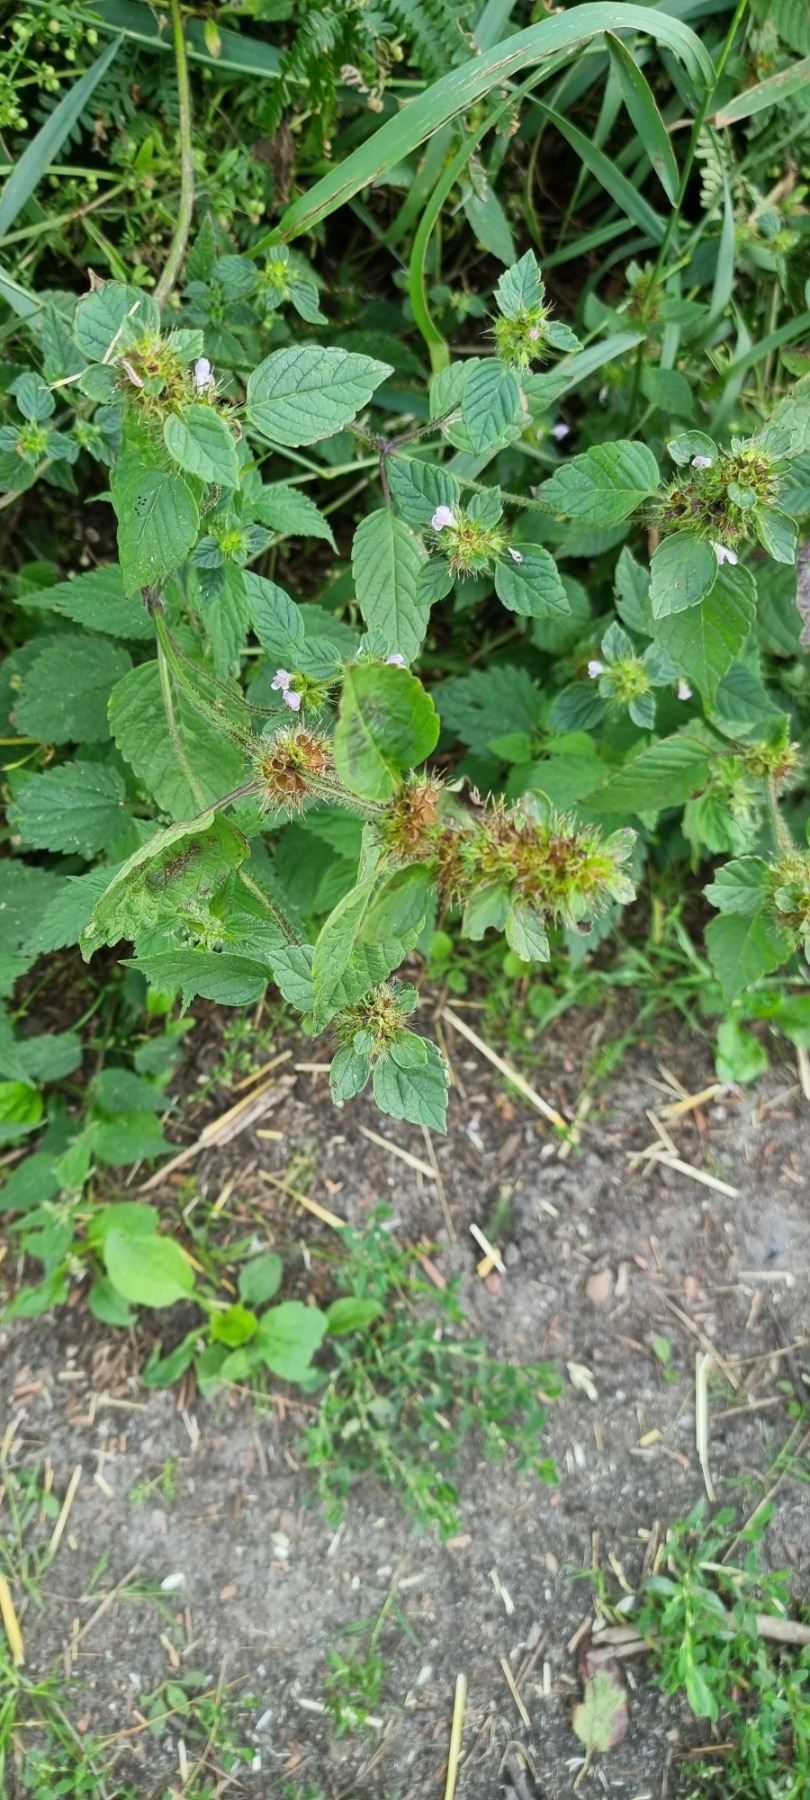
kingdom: Plantae
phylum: Tracheophyta
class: Magnoliopsida
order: Lamiales
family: Lamiaceae
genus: Galeopsis
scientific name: Galeopsis tetrahit
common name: Almindelig hanekro
